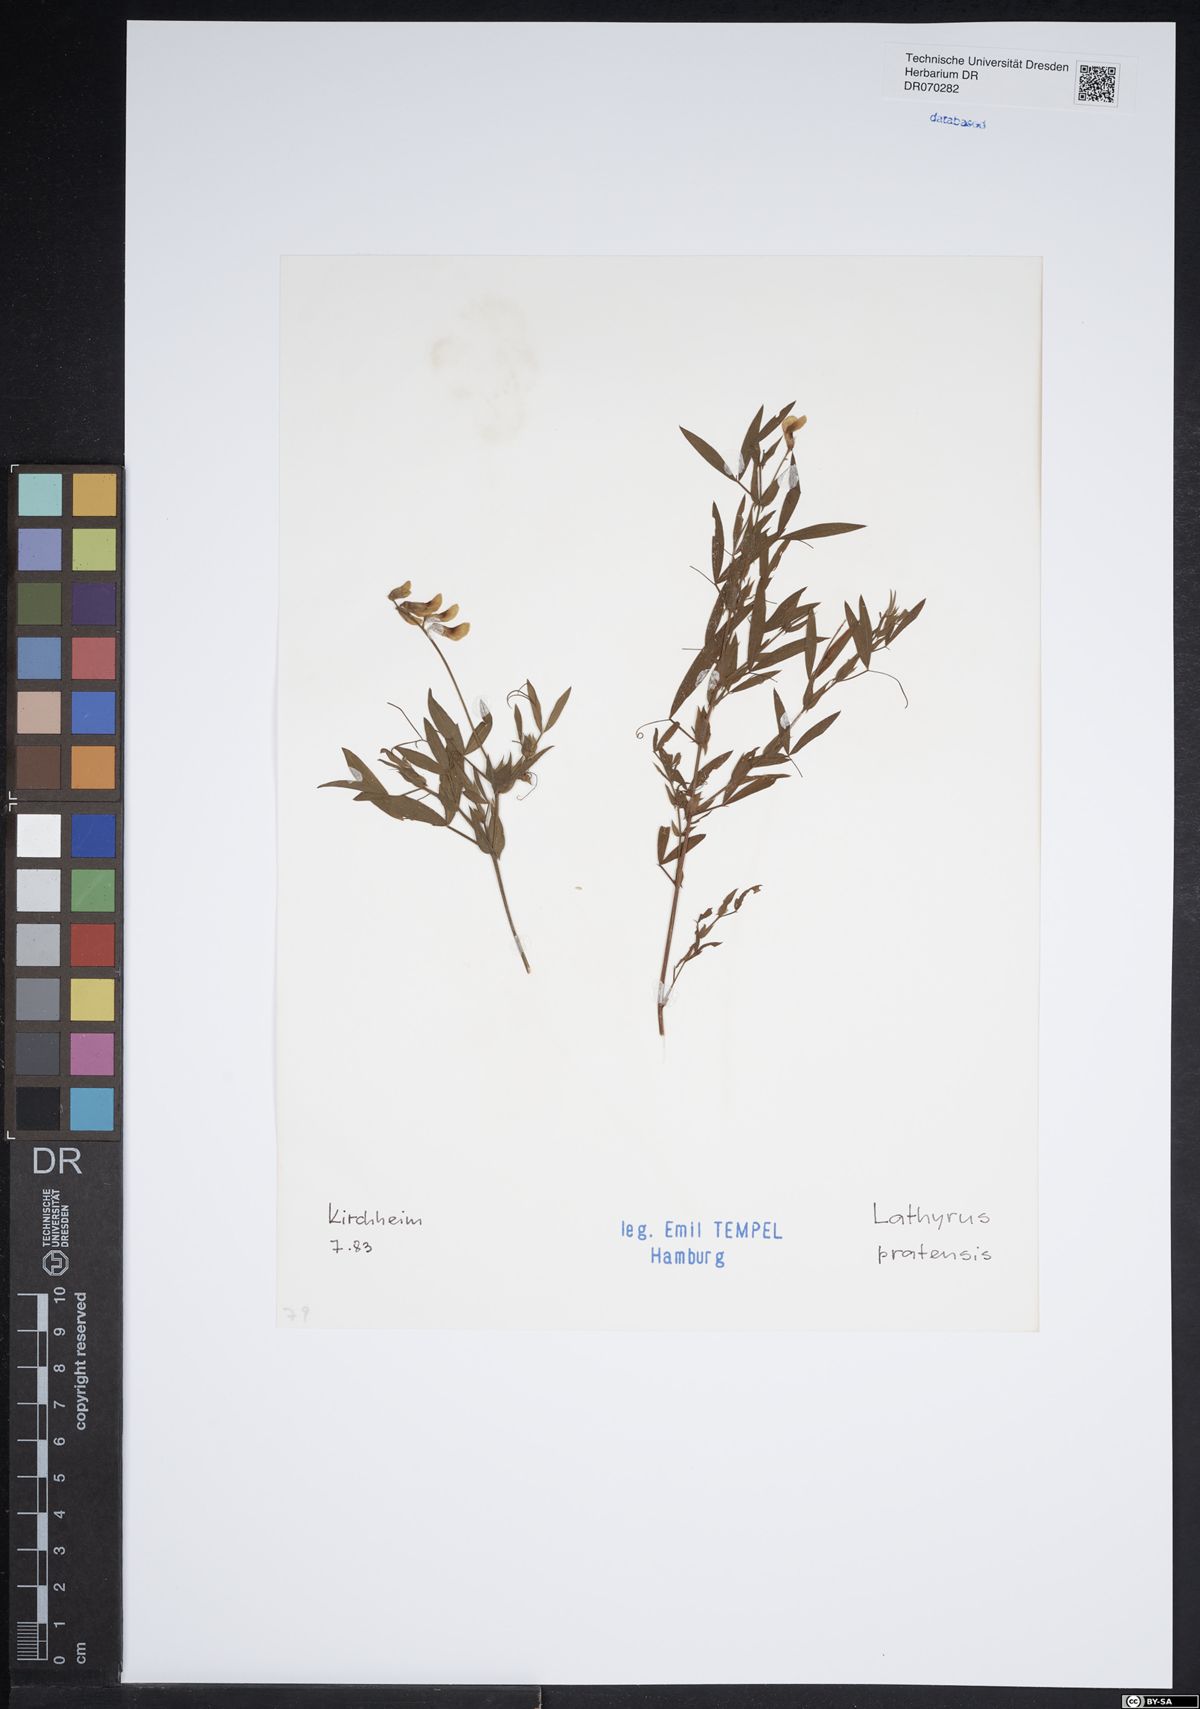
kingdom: Plantae
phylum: Tracheophyta
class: Magnoliopsida
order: Fabales
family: Fabaceae
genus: Lathyrus
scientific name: Lathyrus pratensis
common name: Meadow vetchling
